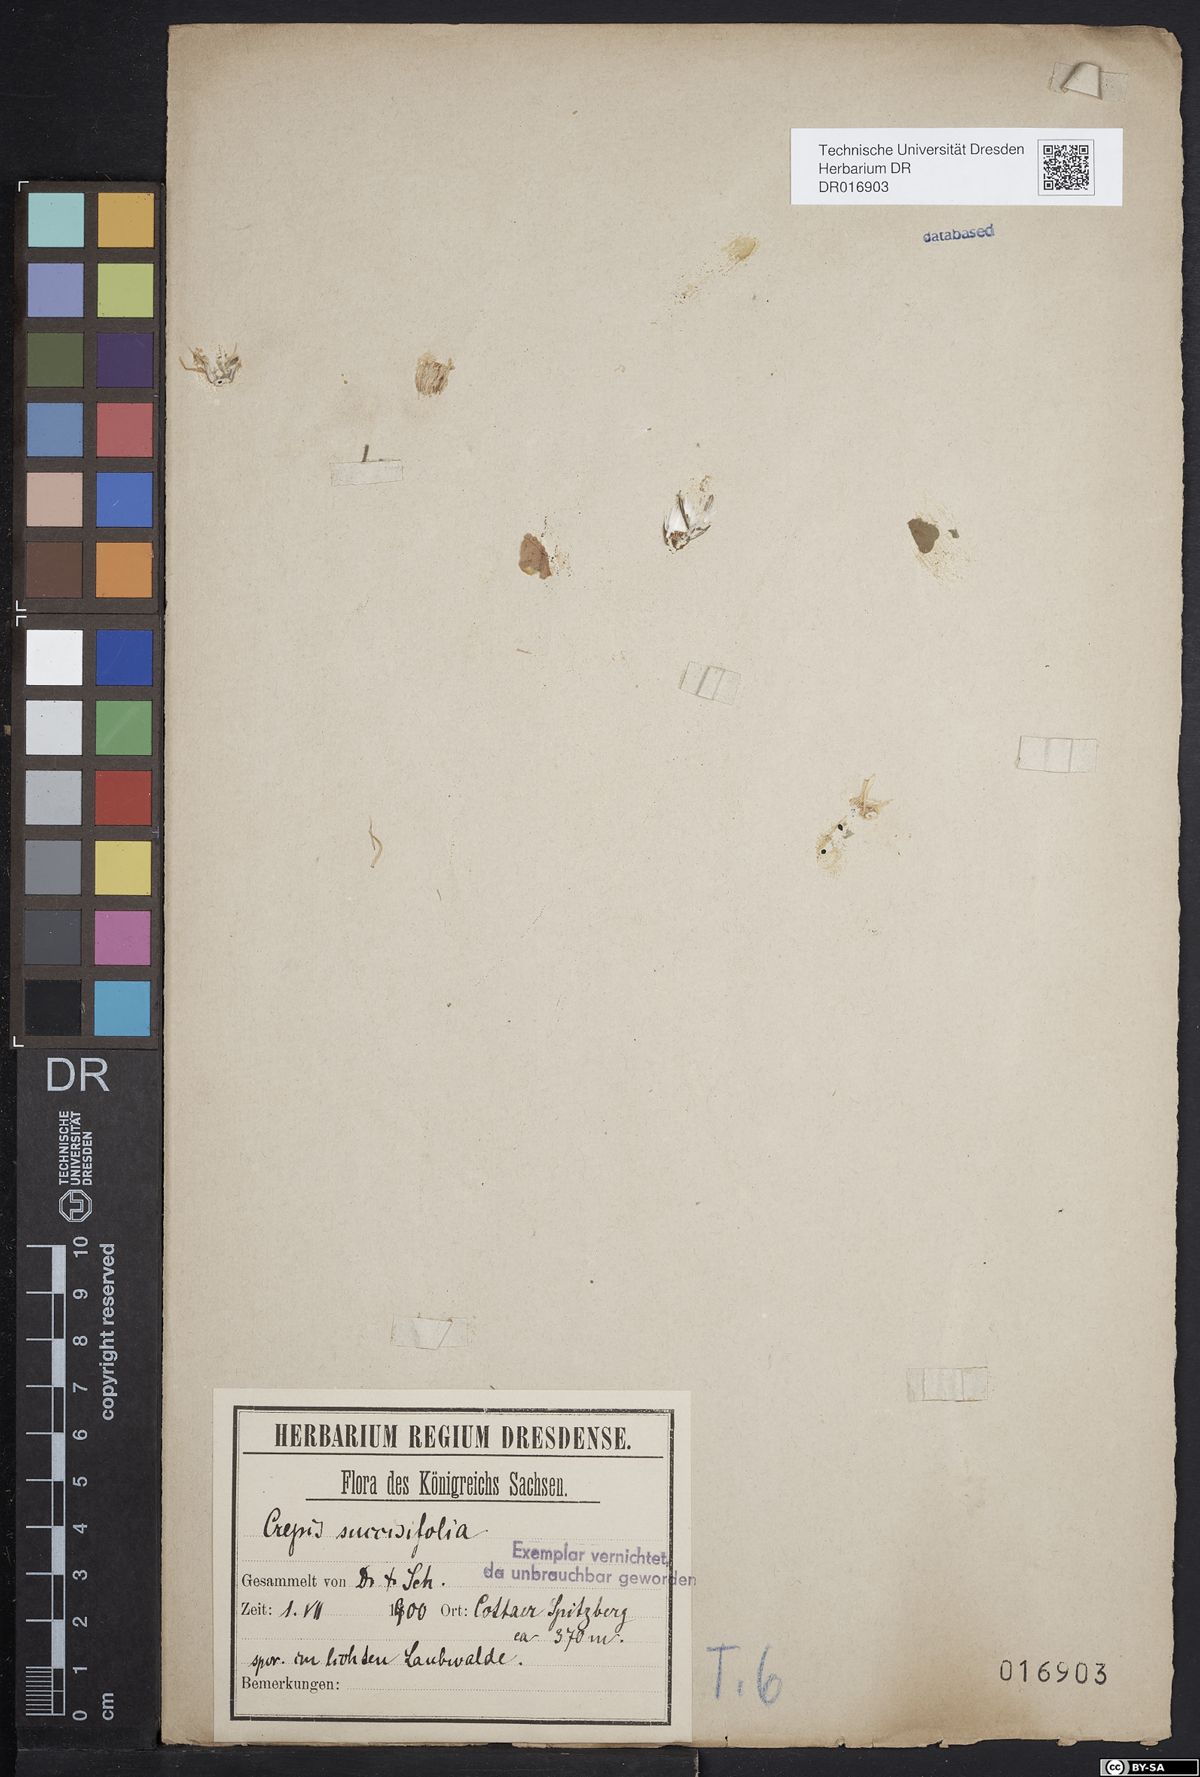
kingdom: Plantae
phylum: Tracheophyta
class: Magnoliopsida
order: Asterales
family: Asteraceae
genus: Crepis
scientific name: Crepis mollis
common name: Northern hawk's-beard
